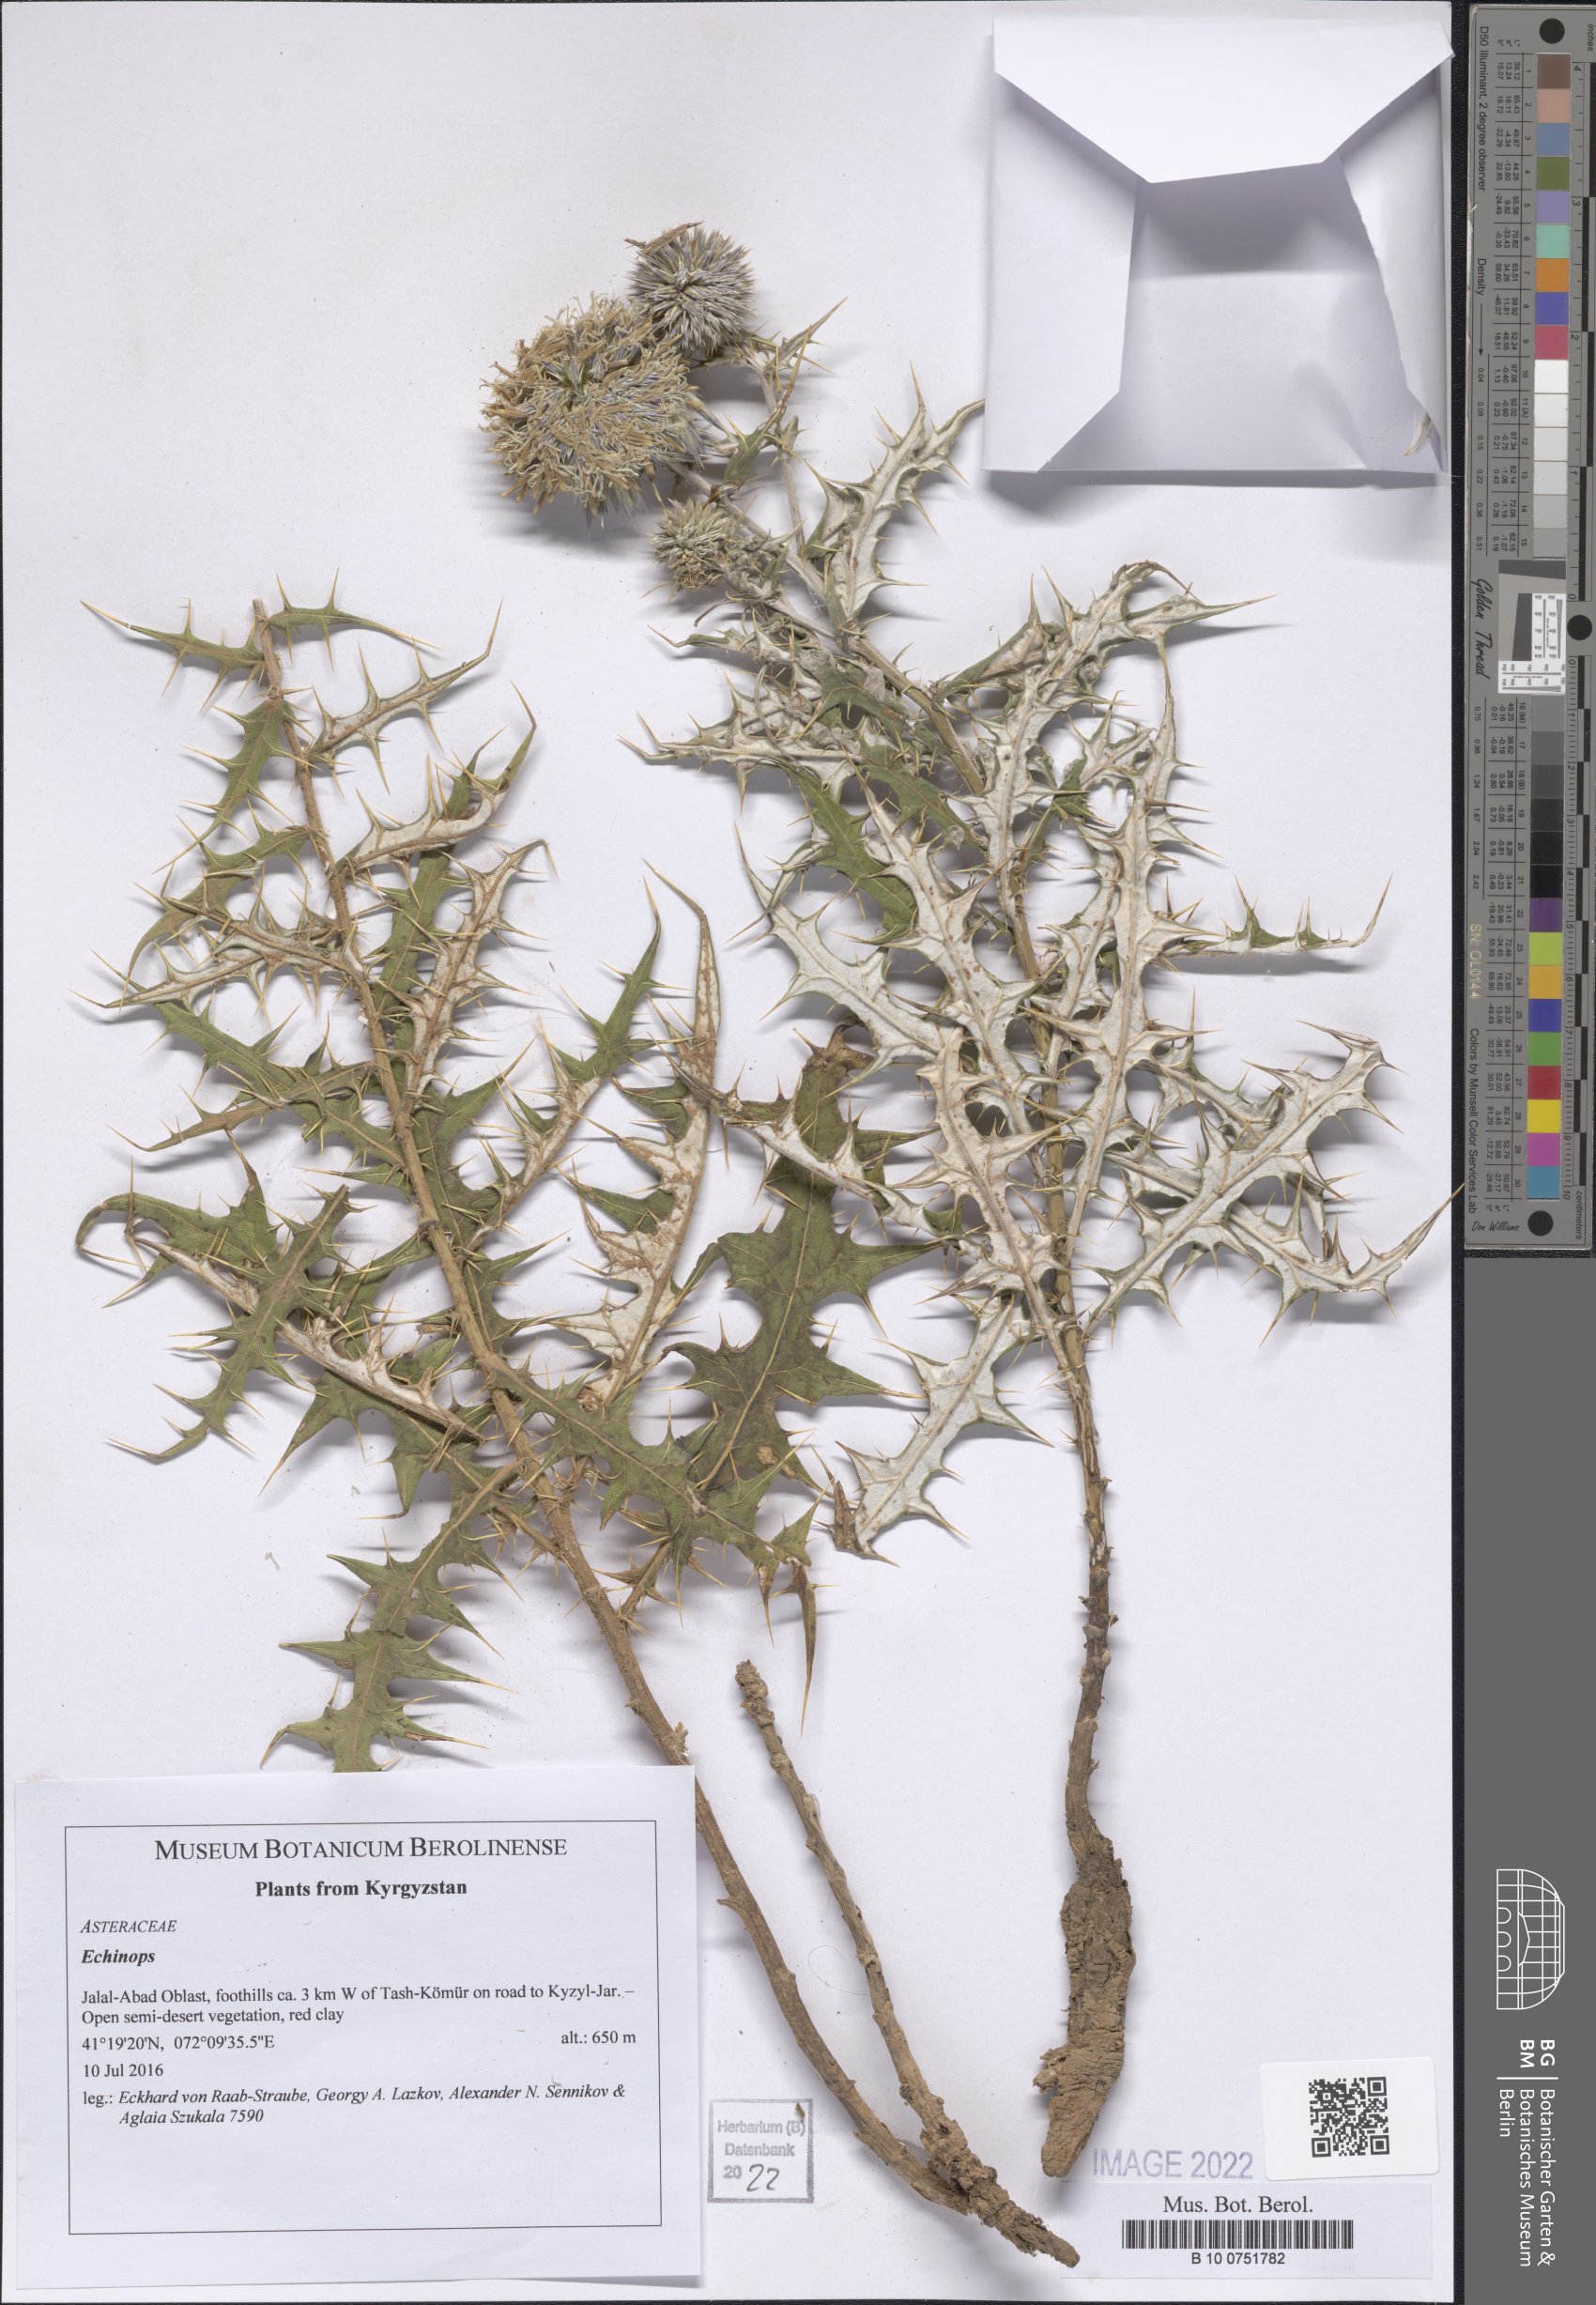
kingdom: Plantae
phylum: Tracheophyta
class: Magnoliopsida
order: Asterales
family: Asteraceae
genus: Echinops
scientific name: Echinops
